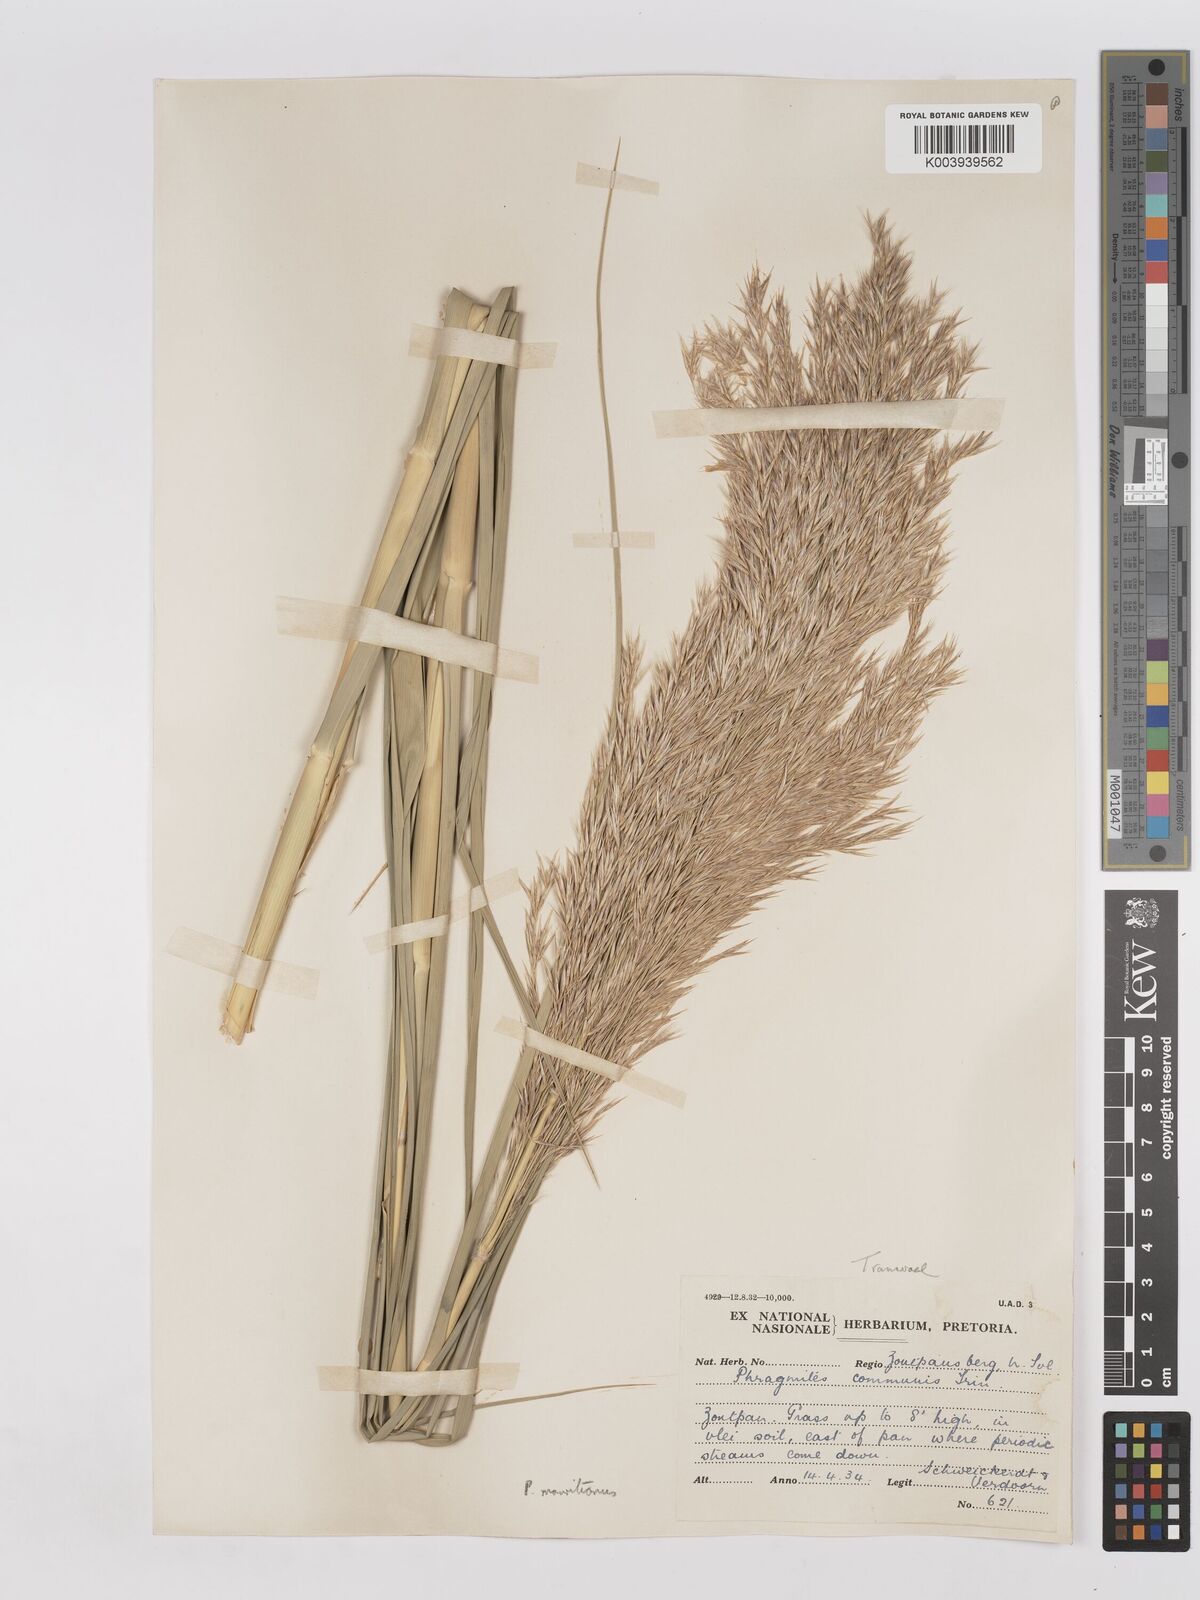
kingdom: Plantae
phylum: Tracheophyta
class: Liliopsida
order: Poales
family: Poaceae
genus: Phragmites
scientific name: Phragmites mauritianus
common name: Reed grass
